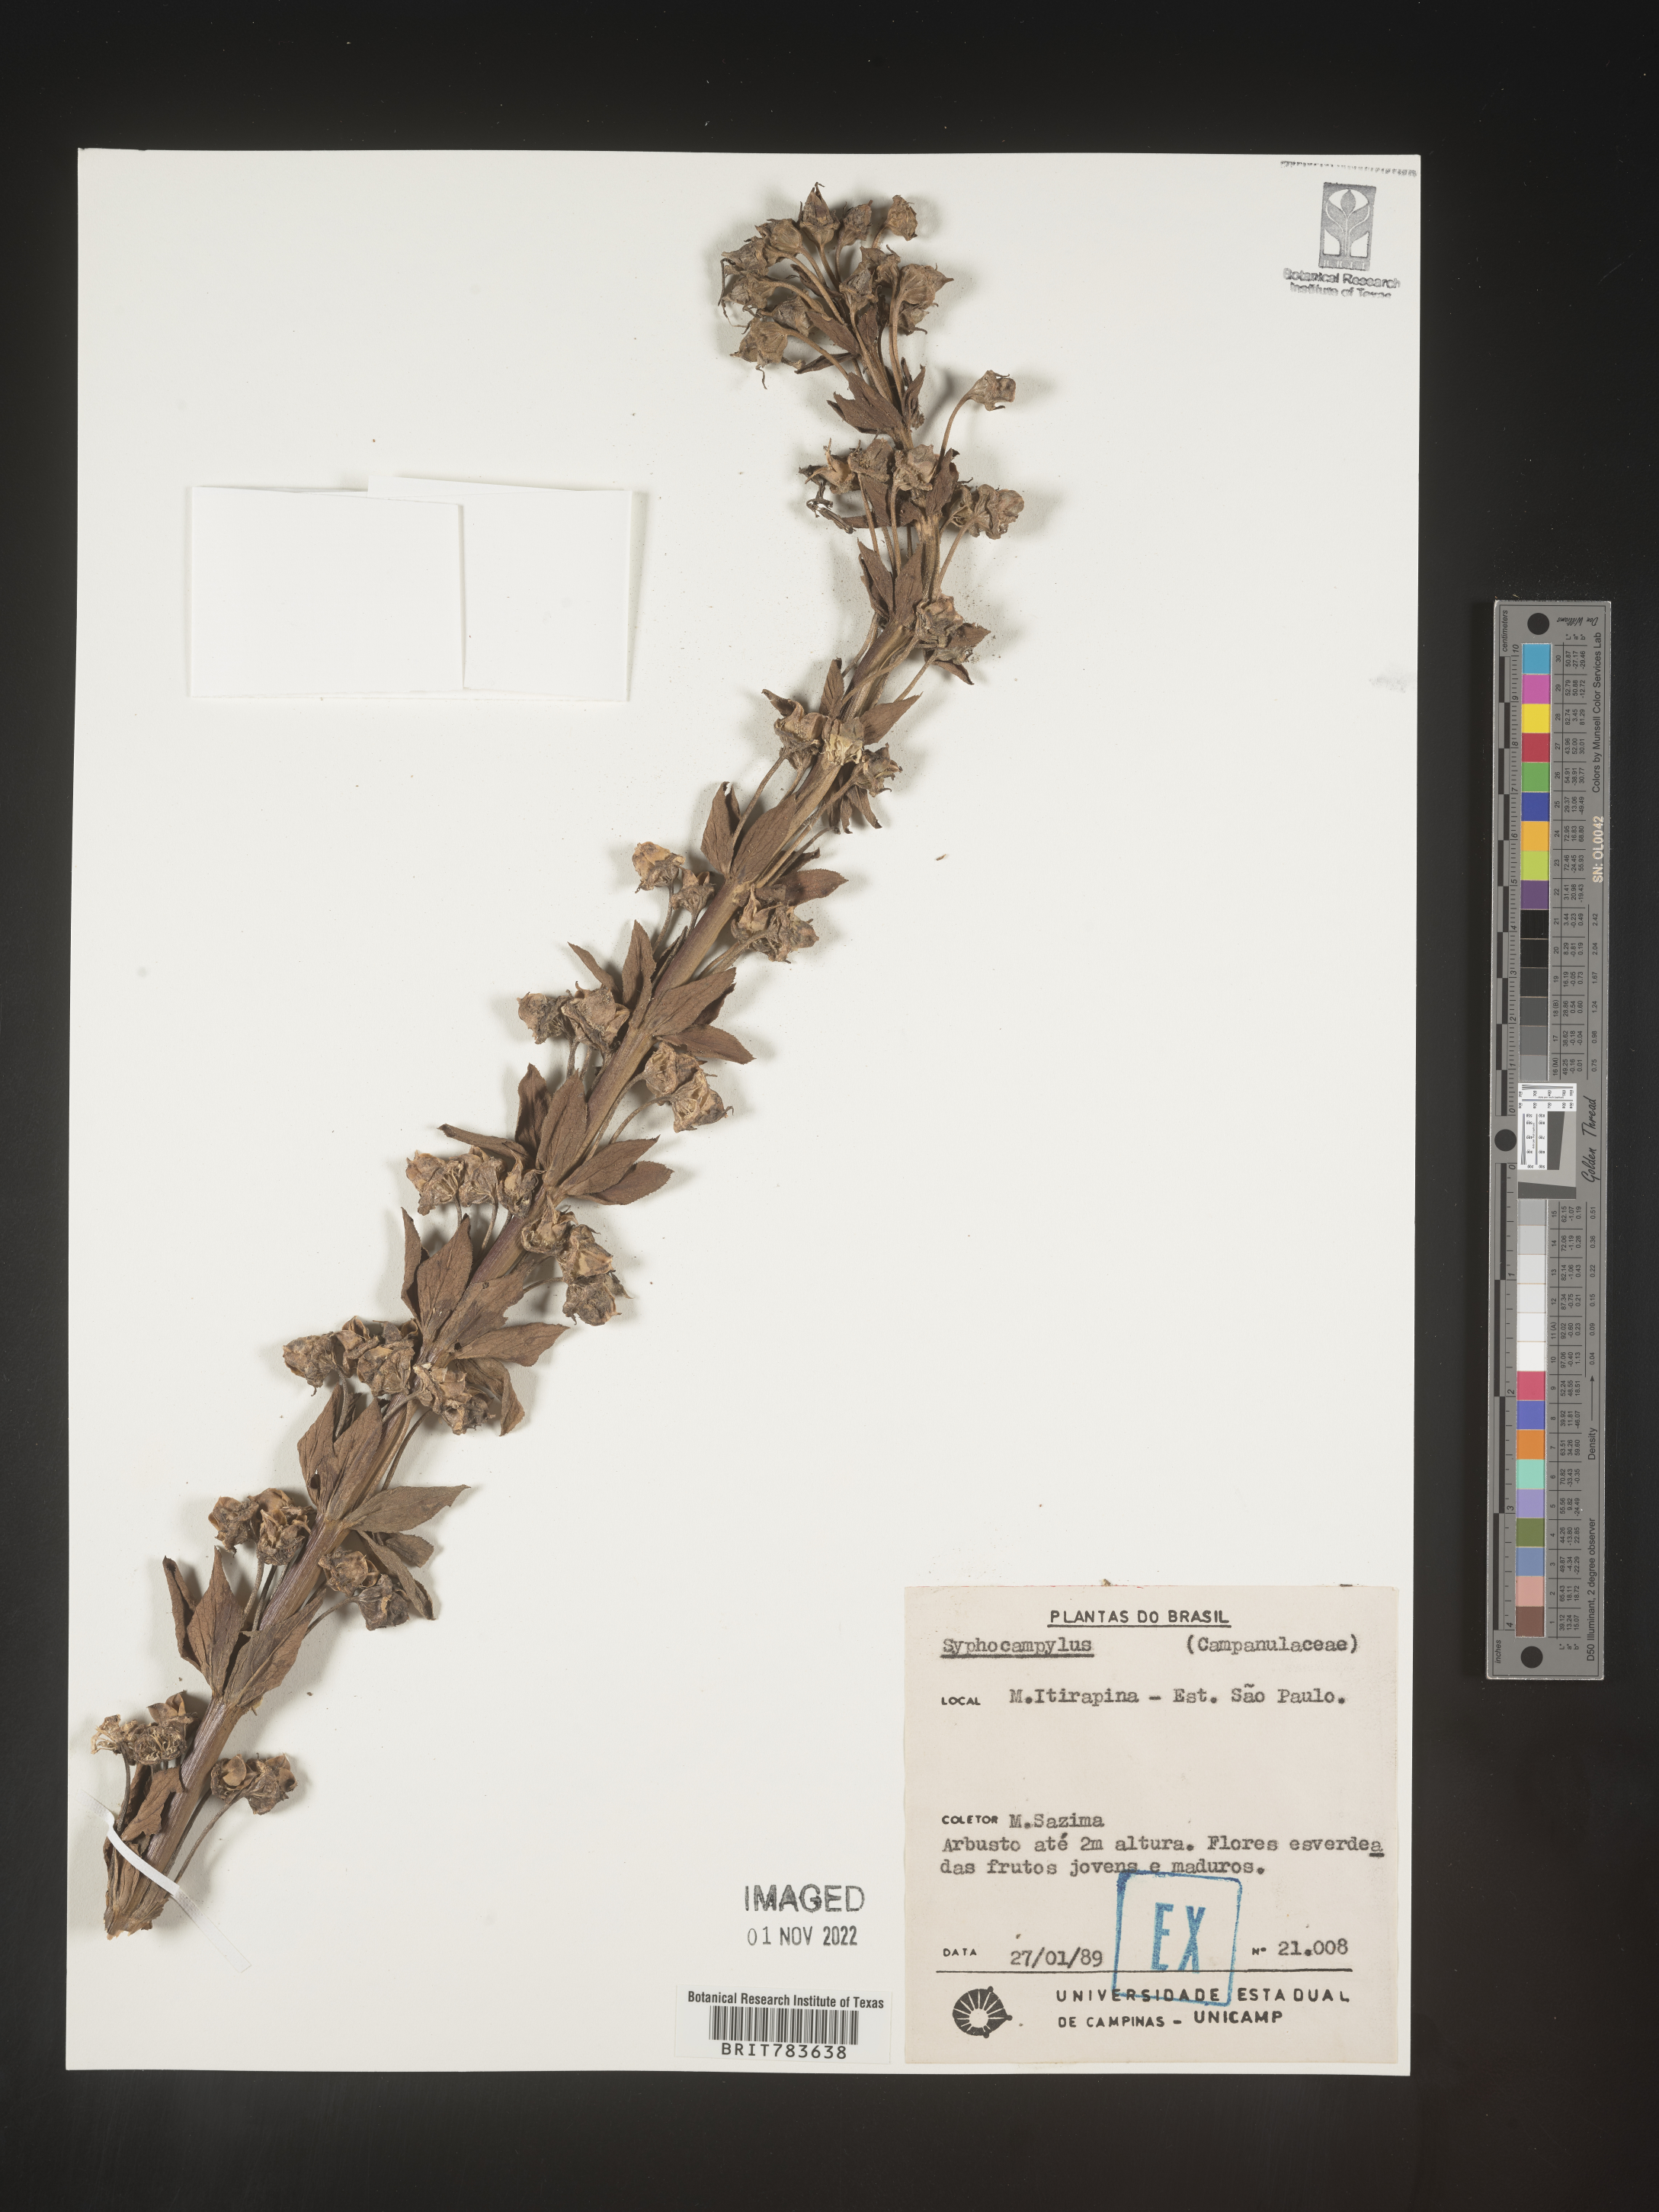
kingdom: Plantae
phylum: Tracheophyta
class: Magnoliopsida
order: Asterales
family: Campanulaceae
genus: Siphocampylus
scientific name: Siphocampylus
